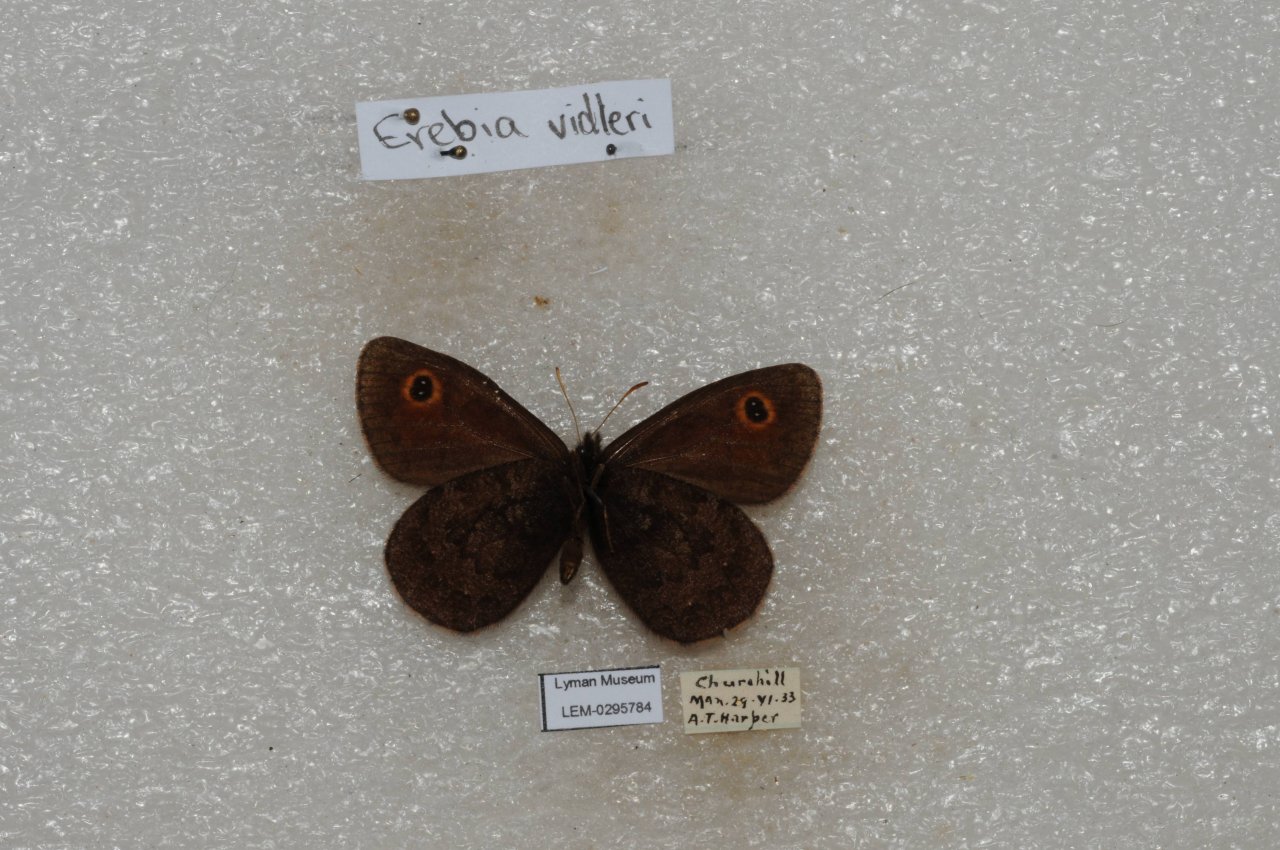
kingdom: Animalia
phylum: Arthropoda
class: Insecta
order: Lepidoptera
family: Nymphalidae
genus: Erebia
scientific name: Erebia rossii
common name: Ross's Alpine
